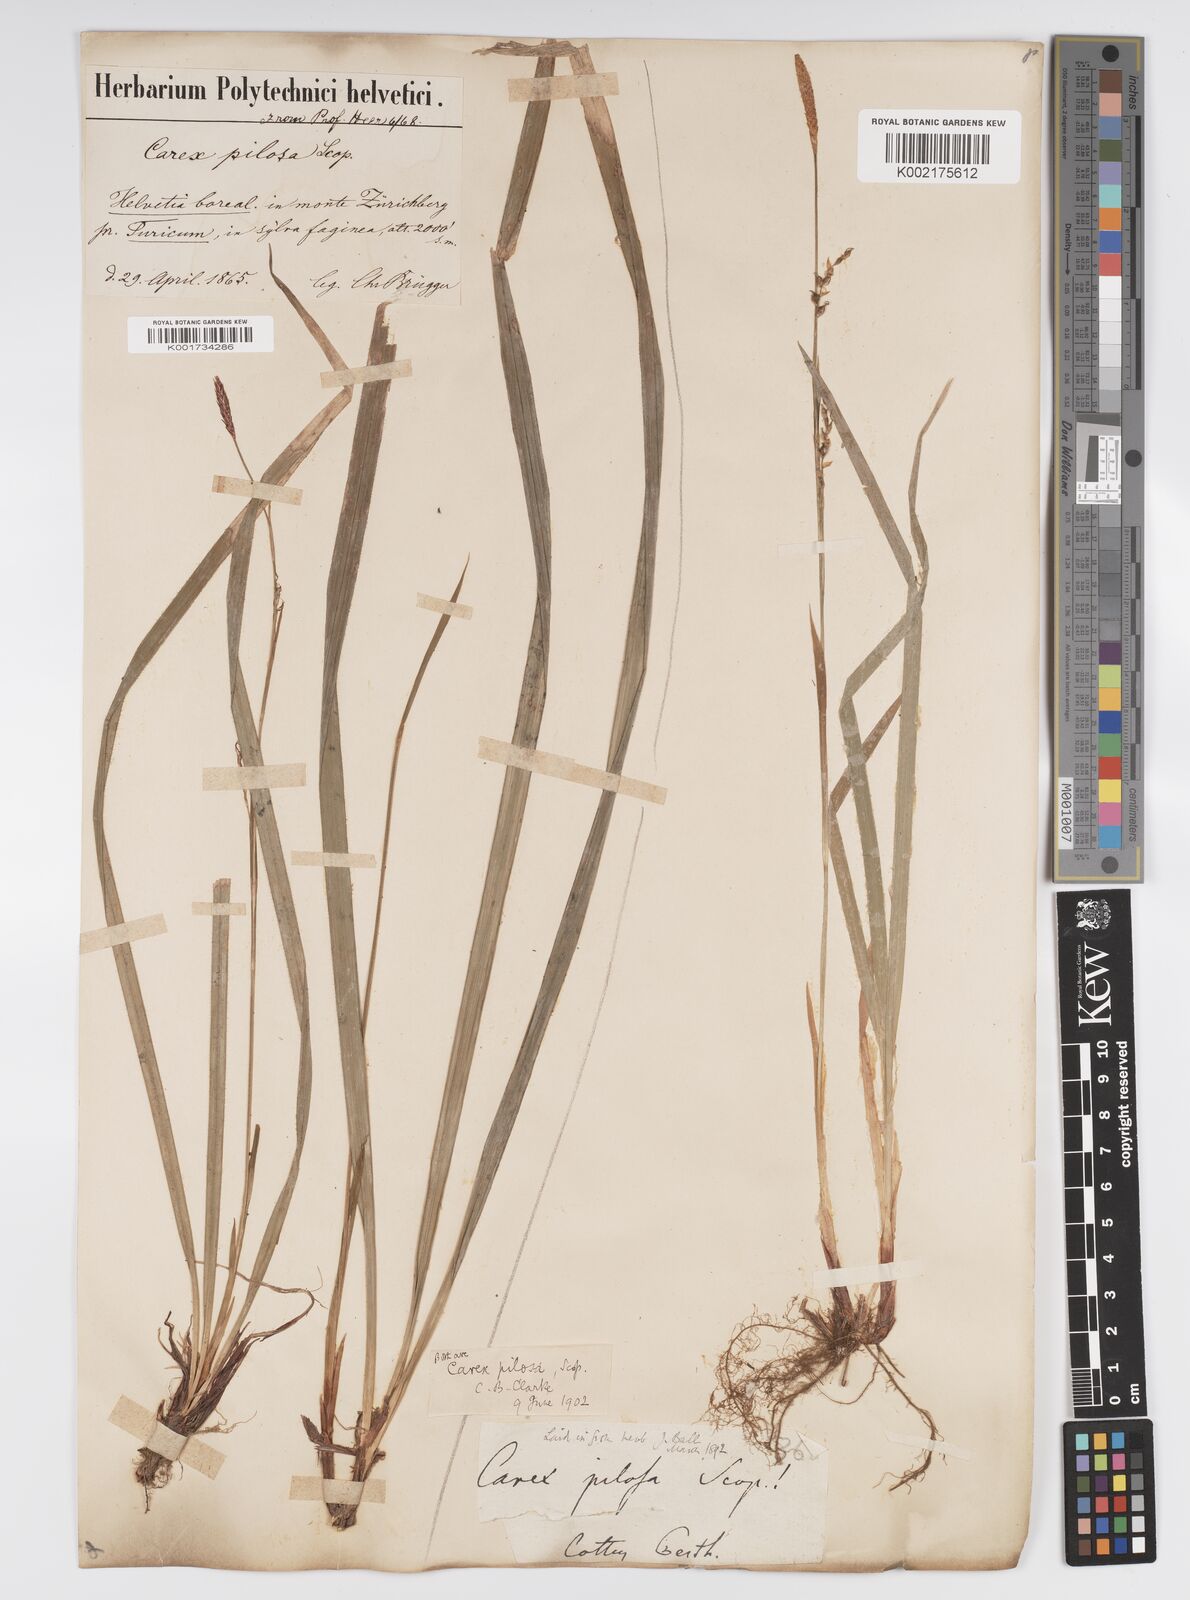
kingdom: Plantae
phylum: Tracheophyta
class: Liliopsida
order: Poales
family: Cyperaceae
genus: Carex
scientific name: Carex pilosa
